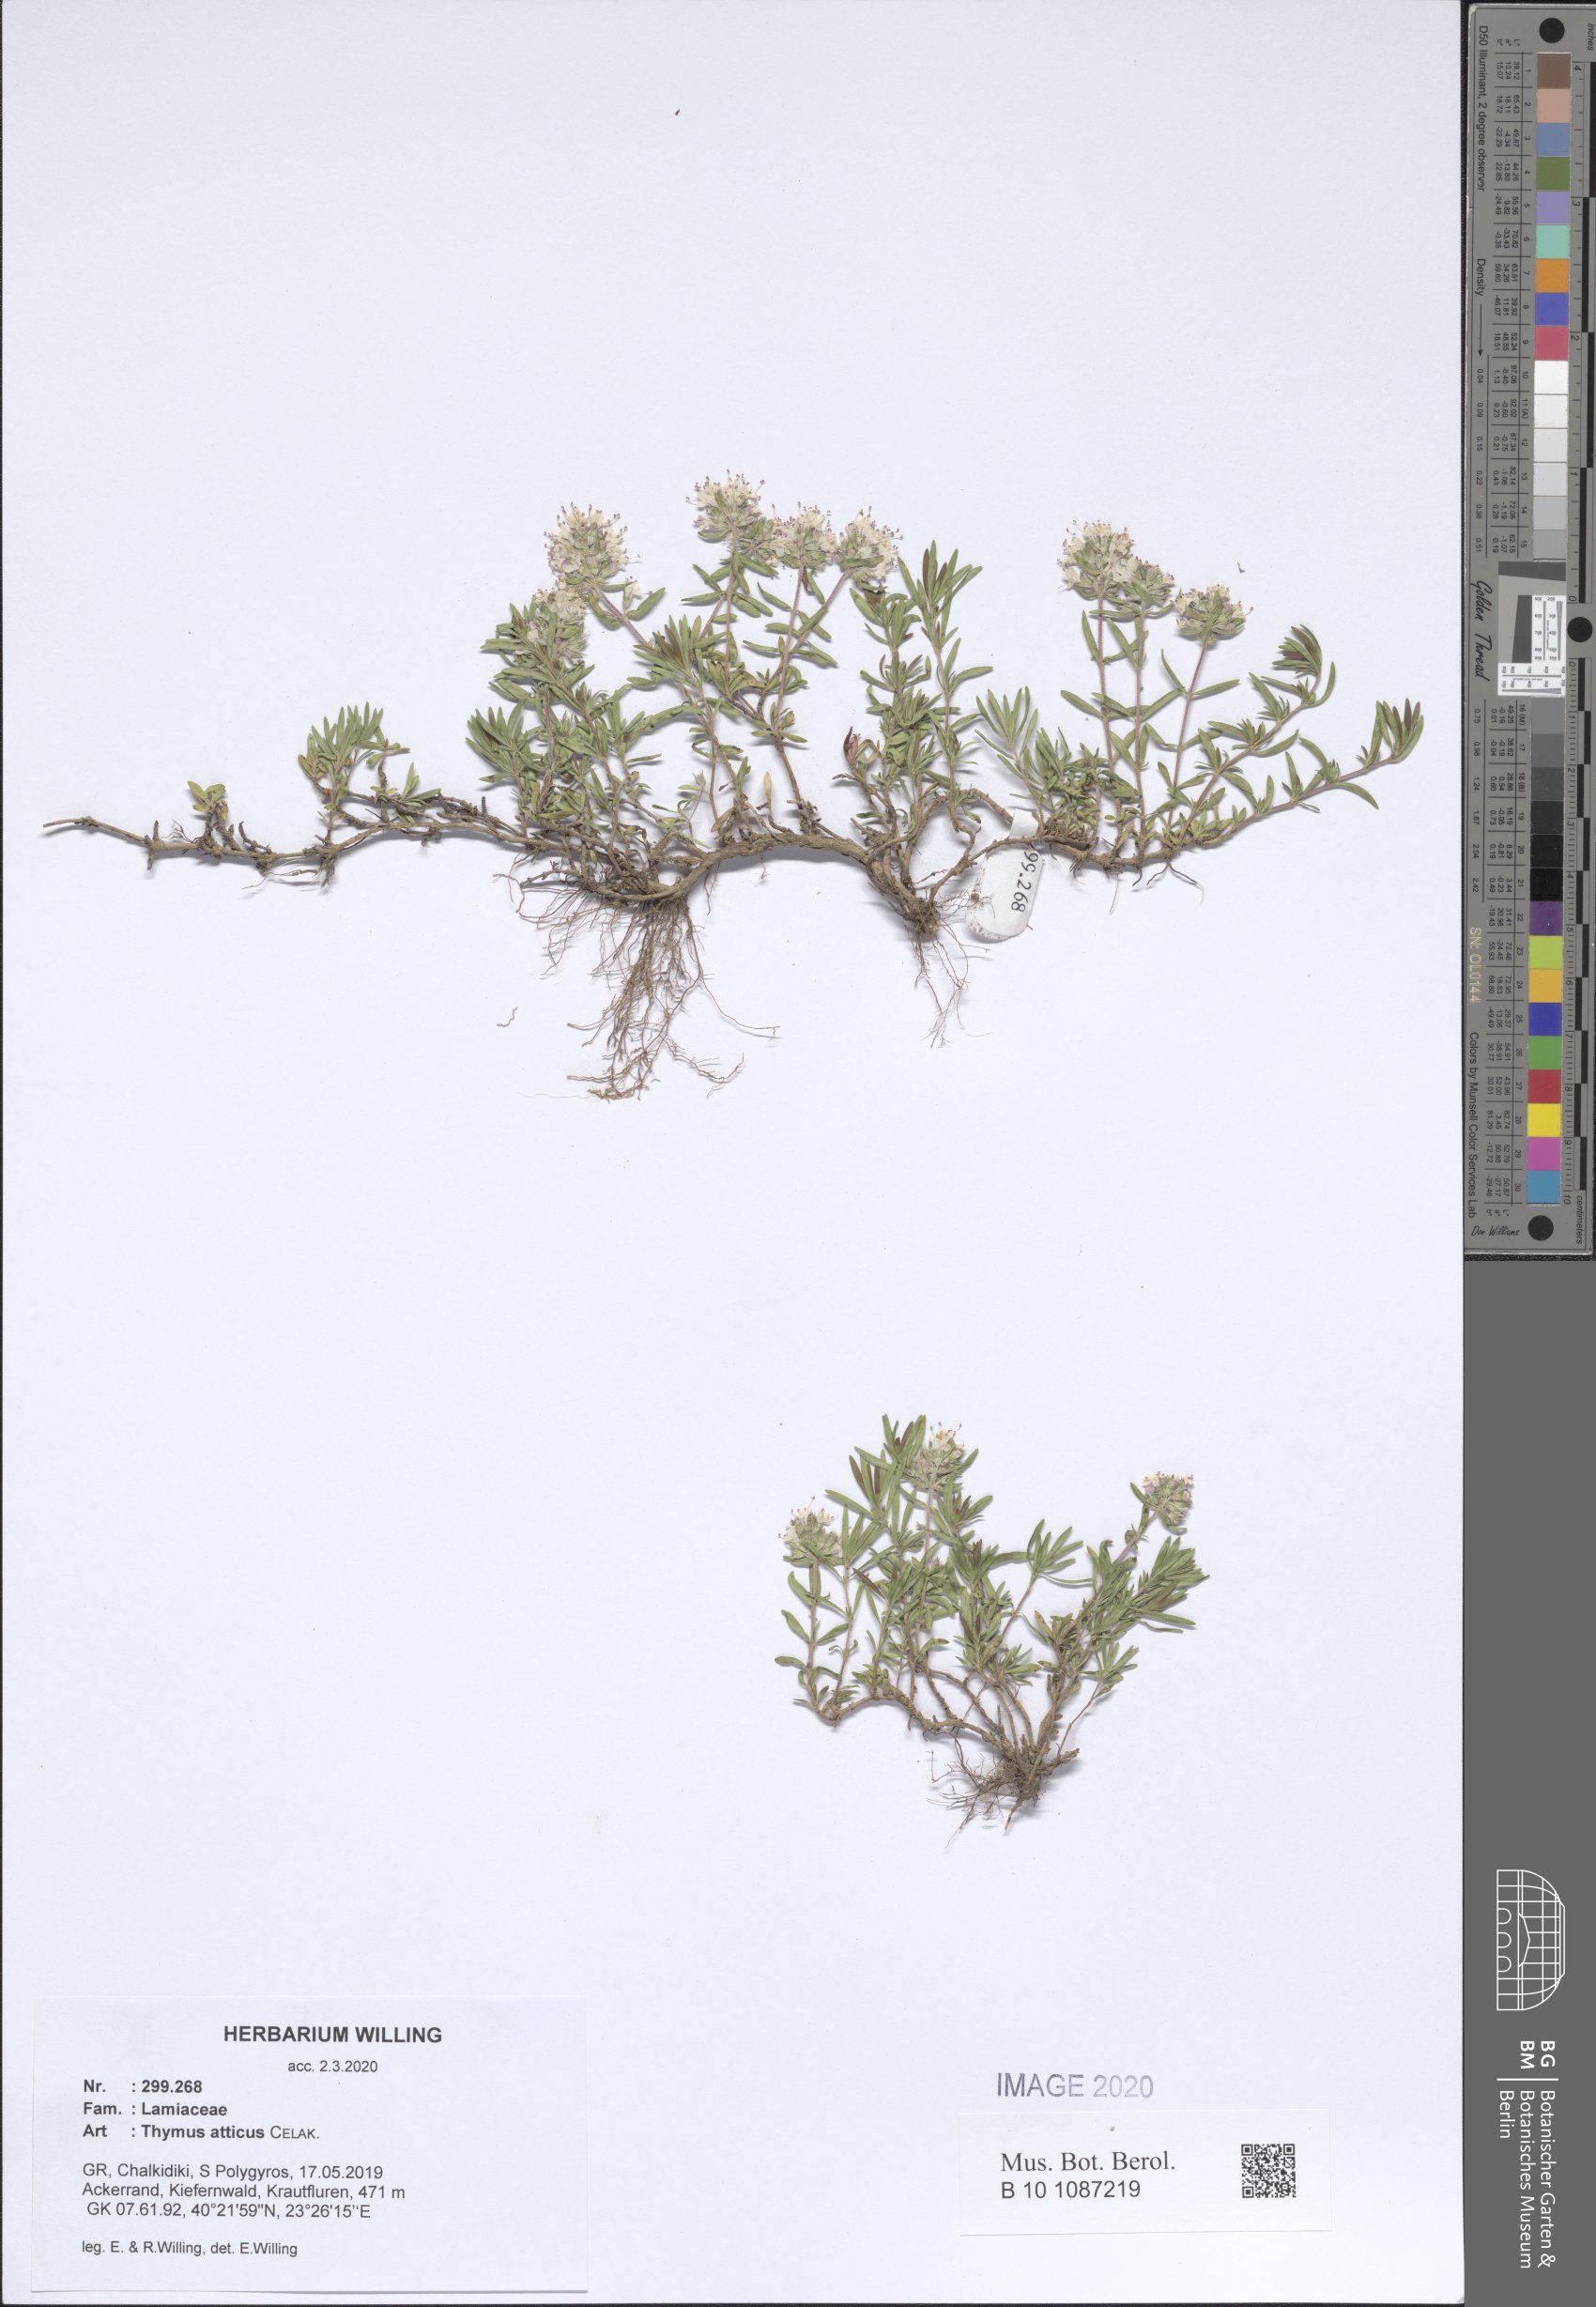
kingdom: Plantae
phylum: Tracheophyta
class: Magnoliopsida
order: Lamiales
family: Lamiaceae
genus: Thymus
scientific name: Thymus
